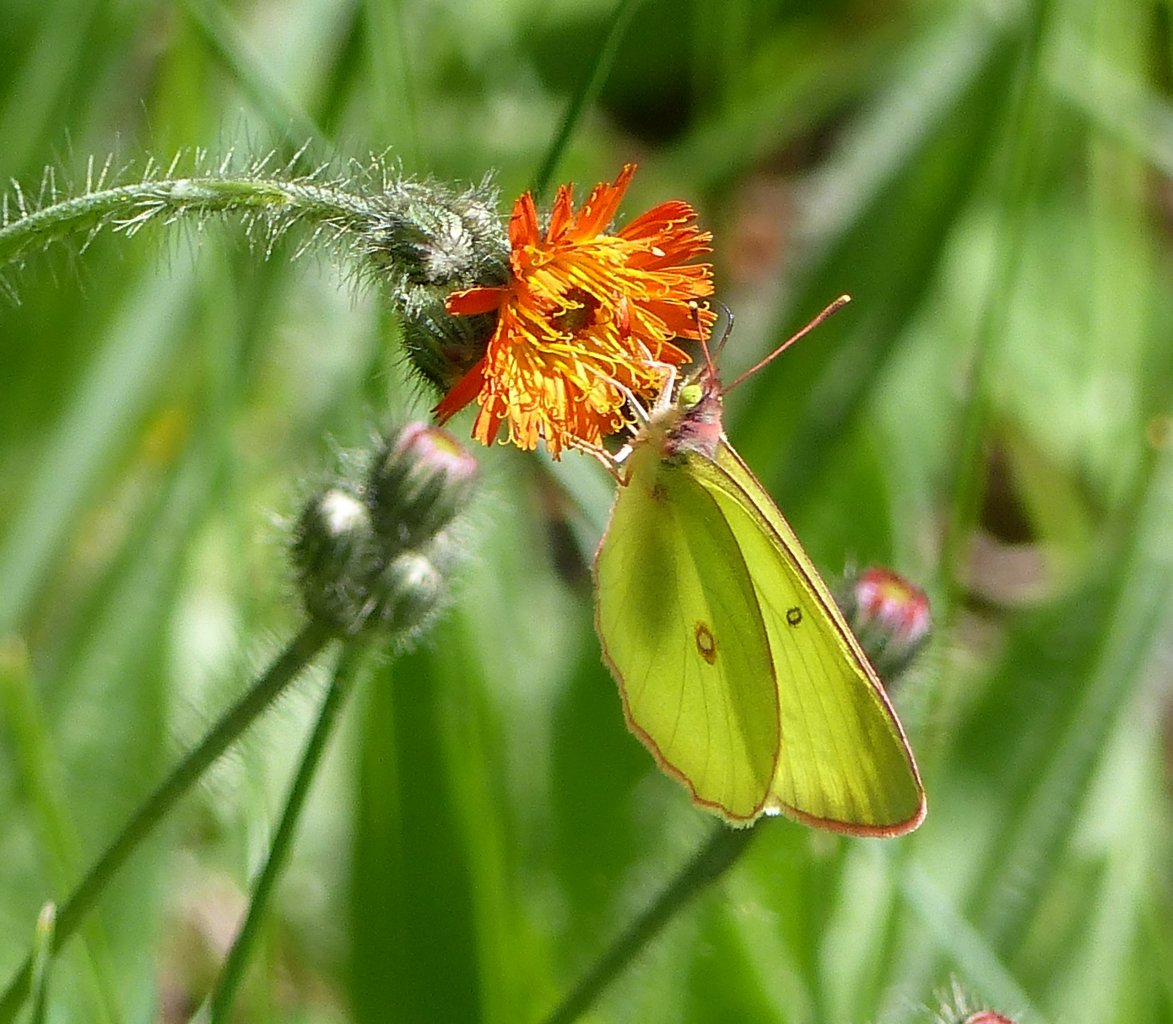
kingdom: Animalia
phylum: Arthropoda
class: Insecta
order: Lepidoptera
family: Pieridae
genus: Colias
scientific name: Colias
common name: Clouded Yellows
